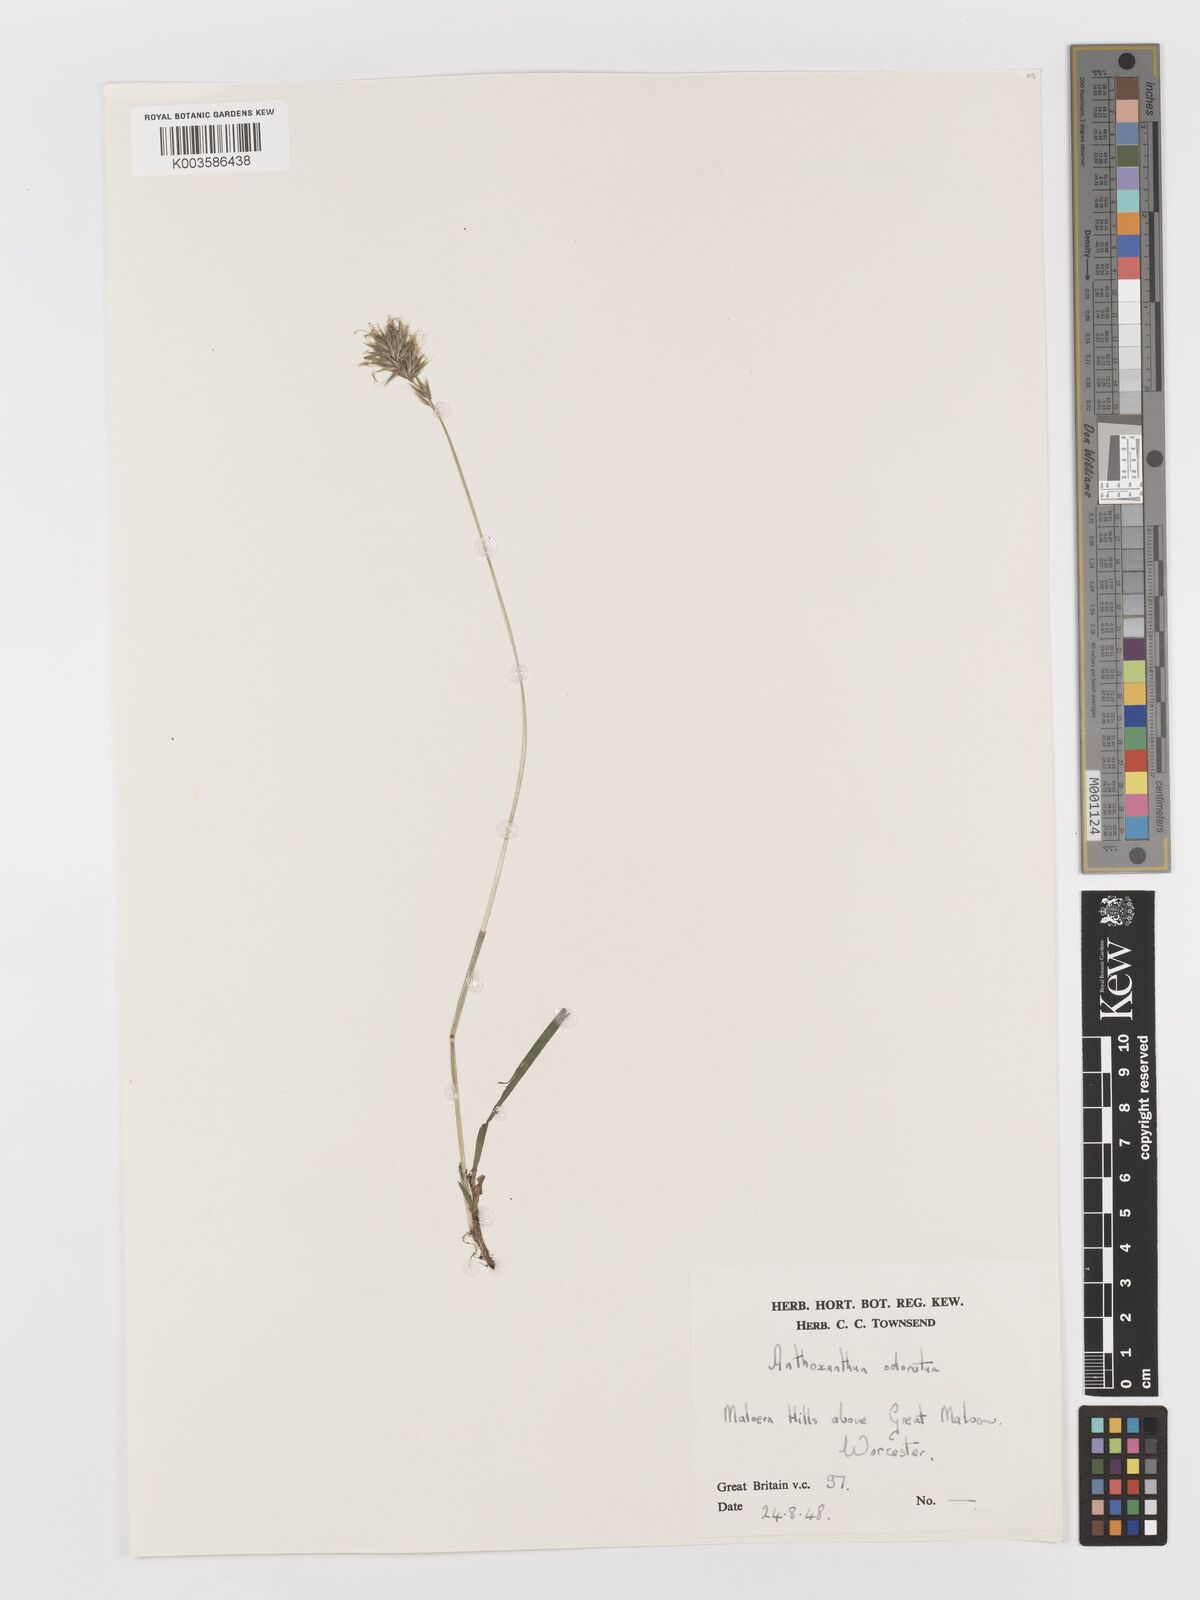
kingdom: Plantae
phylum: Tracheophyta
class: Liliopsida
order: Poales
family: Poaceae
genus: Anthoxanthum
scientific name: Anthoxanthum odoratum
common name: Sweet vernalgrass
